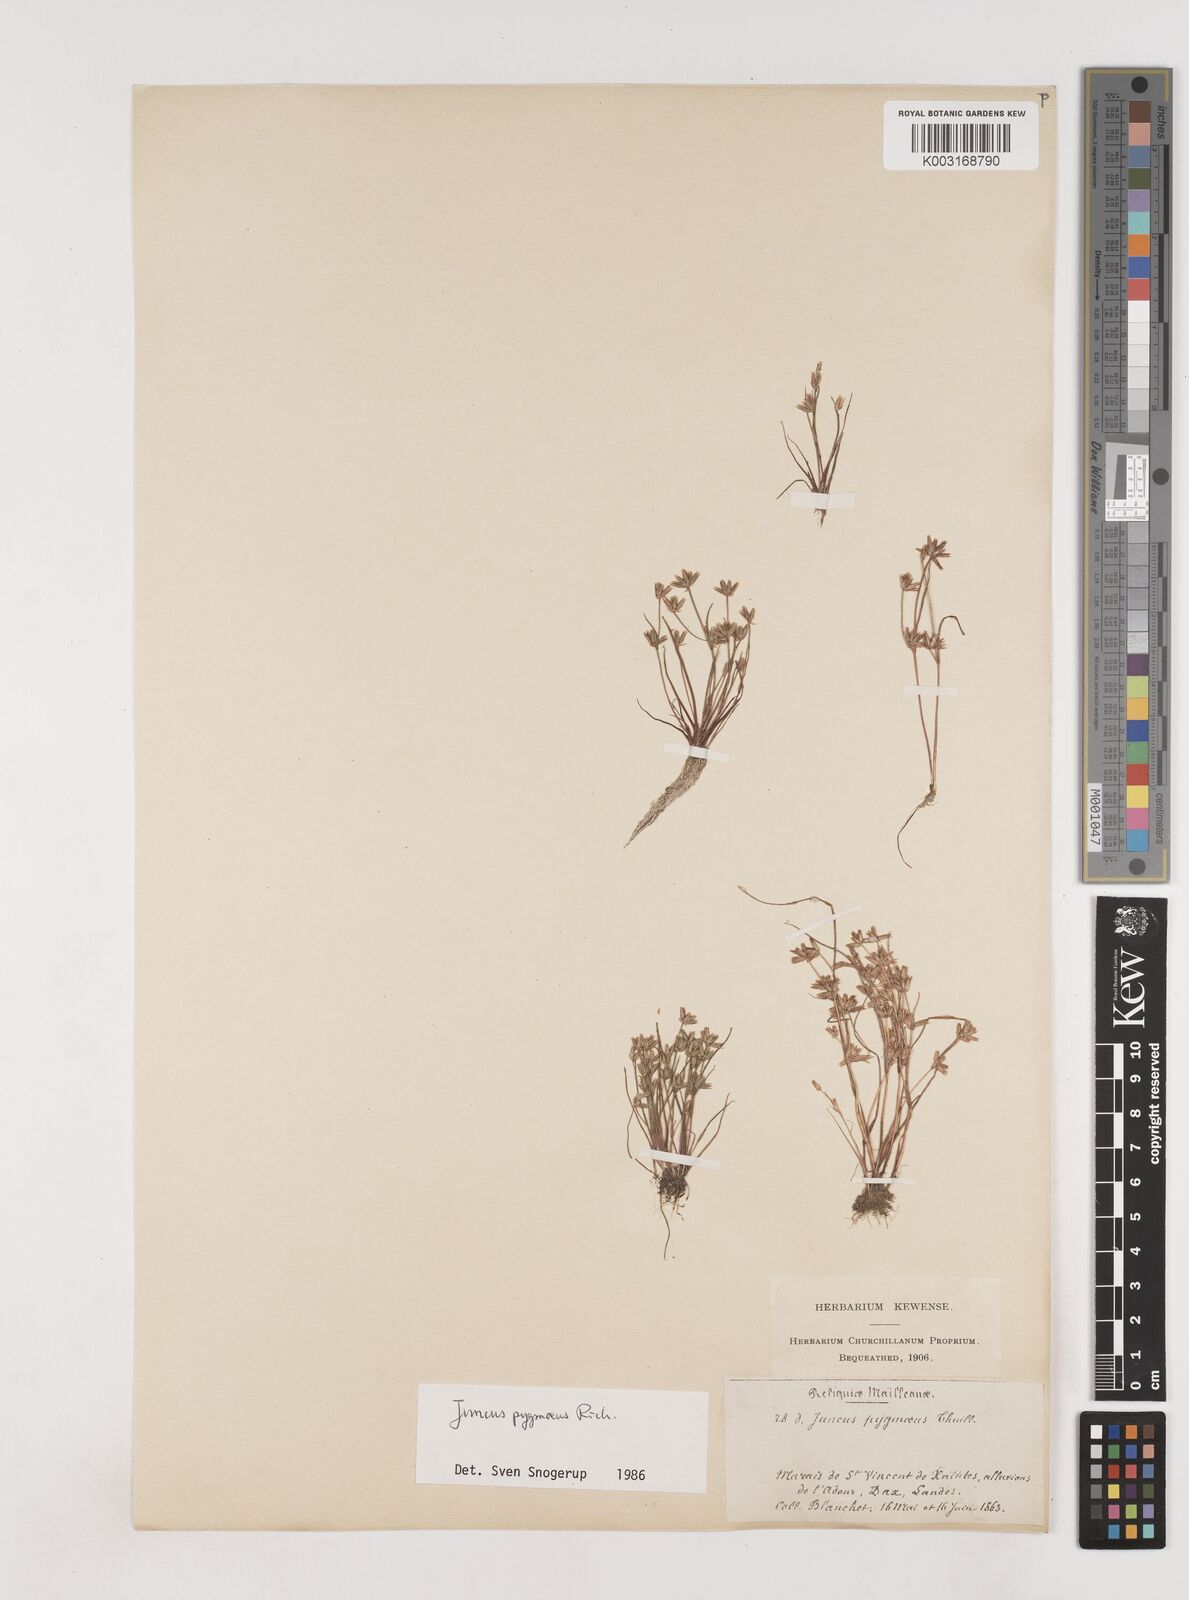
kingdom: Plantae
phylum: Tracheophyta
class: Liliopsida
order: Poales
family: Juncaceae
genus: Juncus
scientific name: Juncus pygmaeus
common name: Pigmy rush
